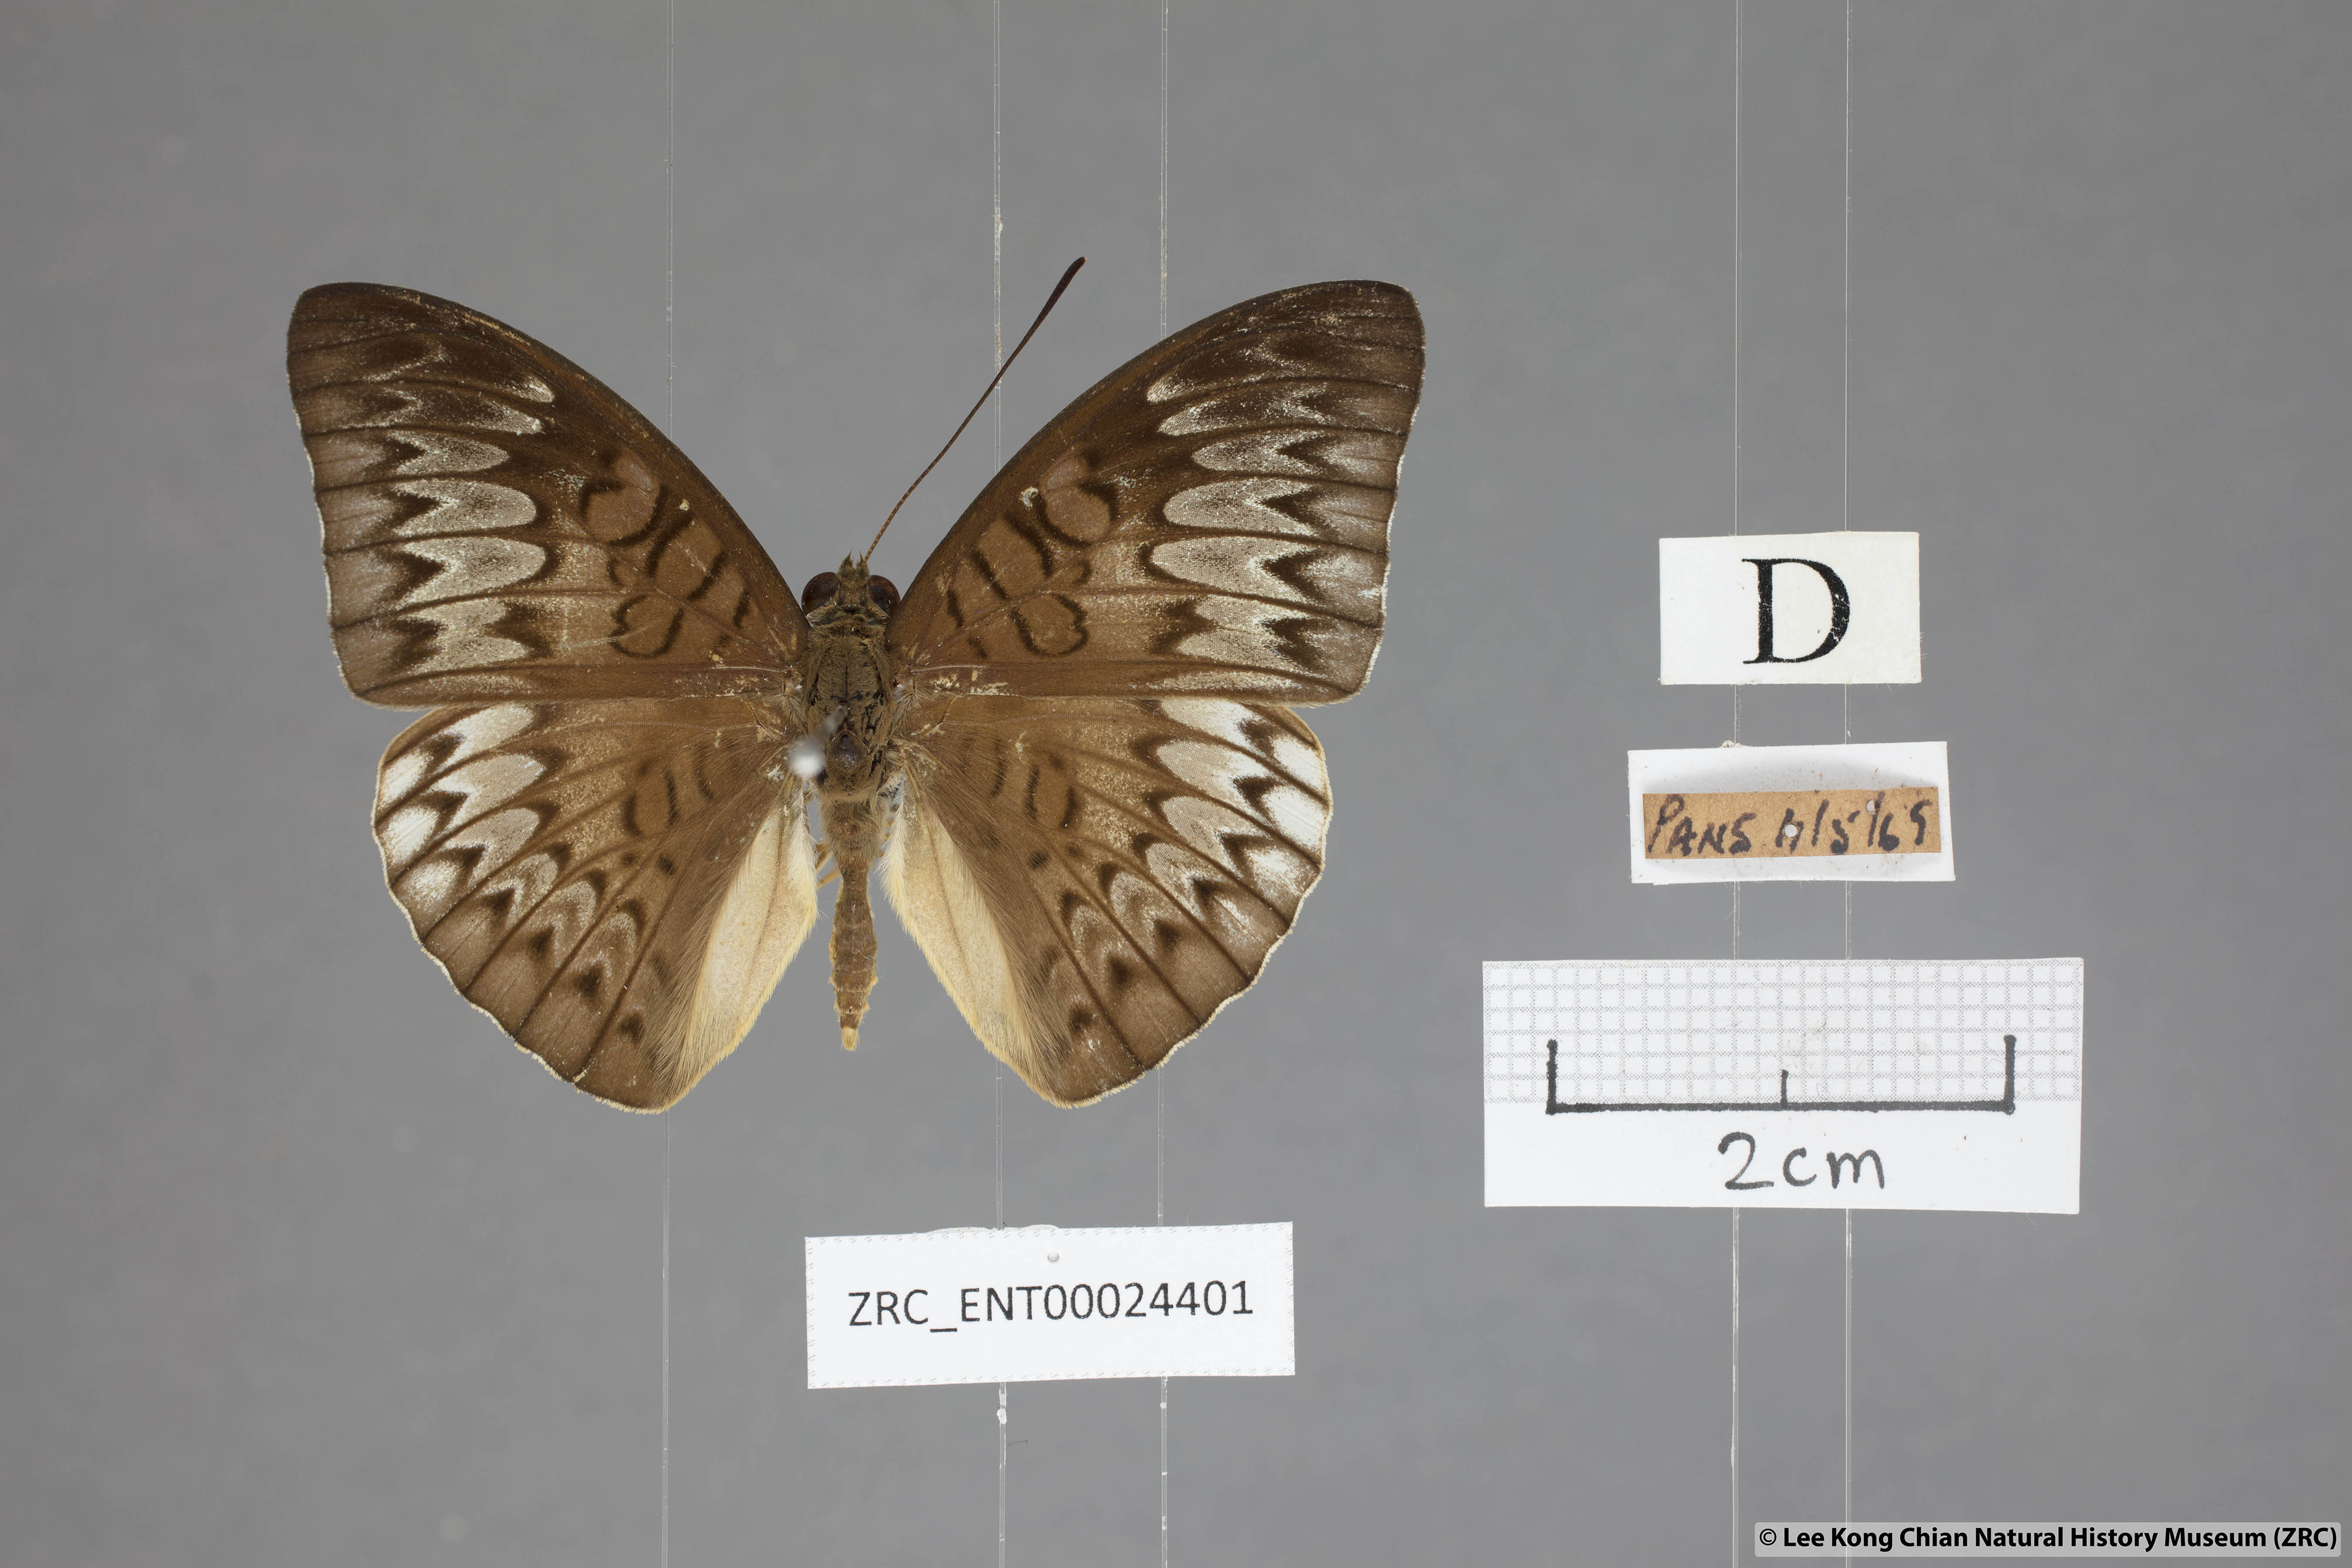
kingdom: Animalia
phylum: Arthropoda
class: Insecta
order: Lepidoptera
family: Nymphalidae
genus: Tanaecia
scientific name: Tanaecia palguna
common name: Long-lined viscount
